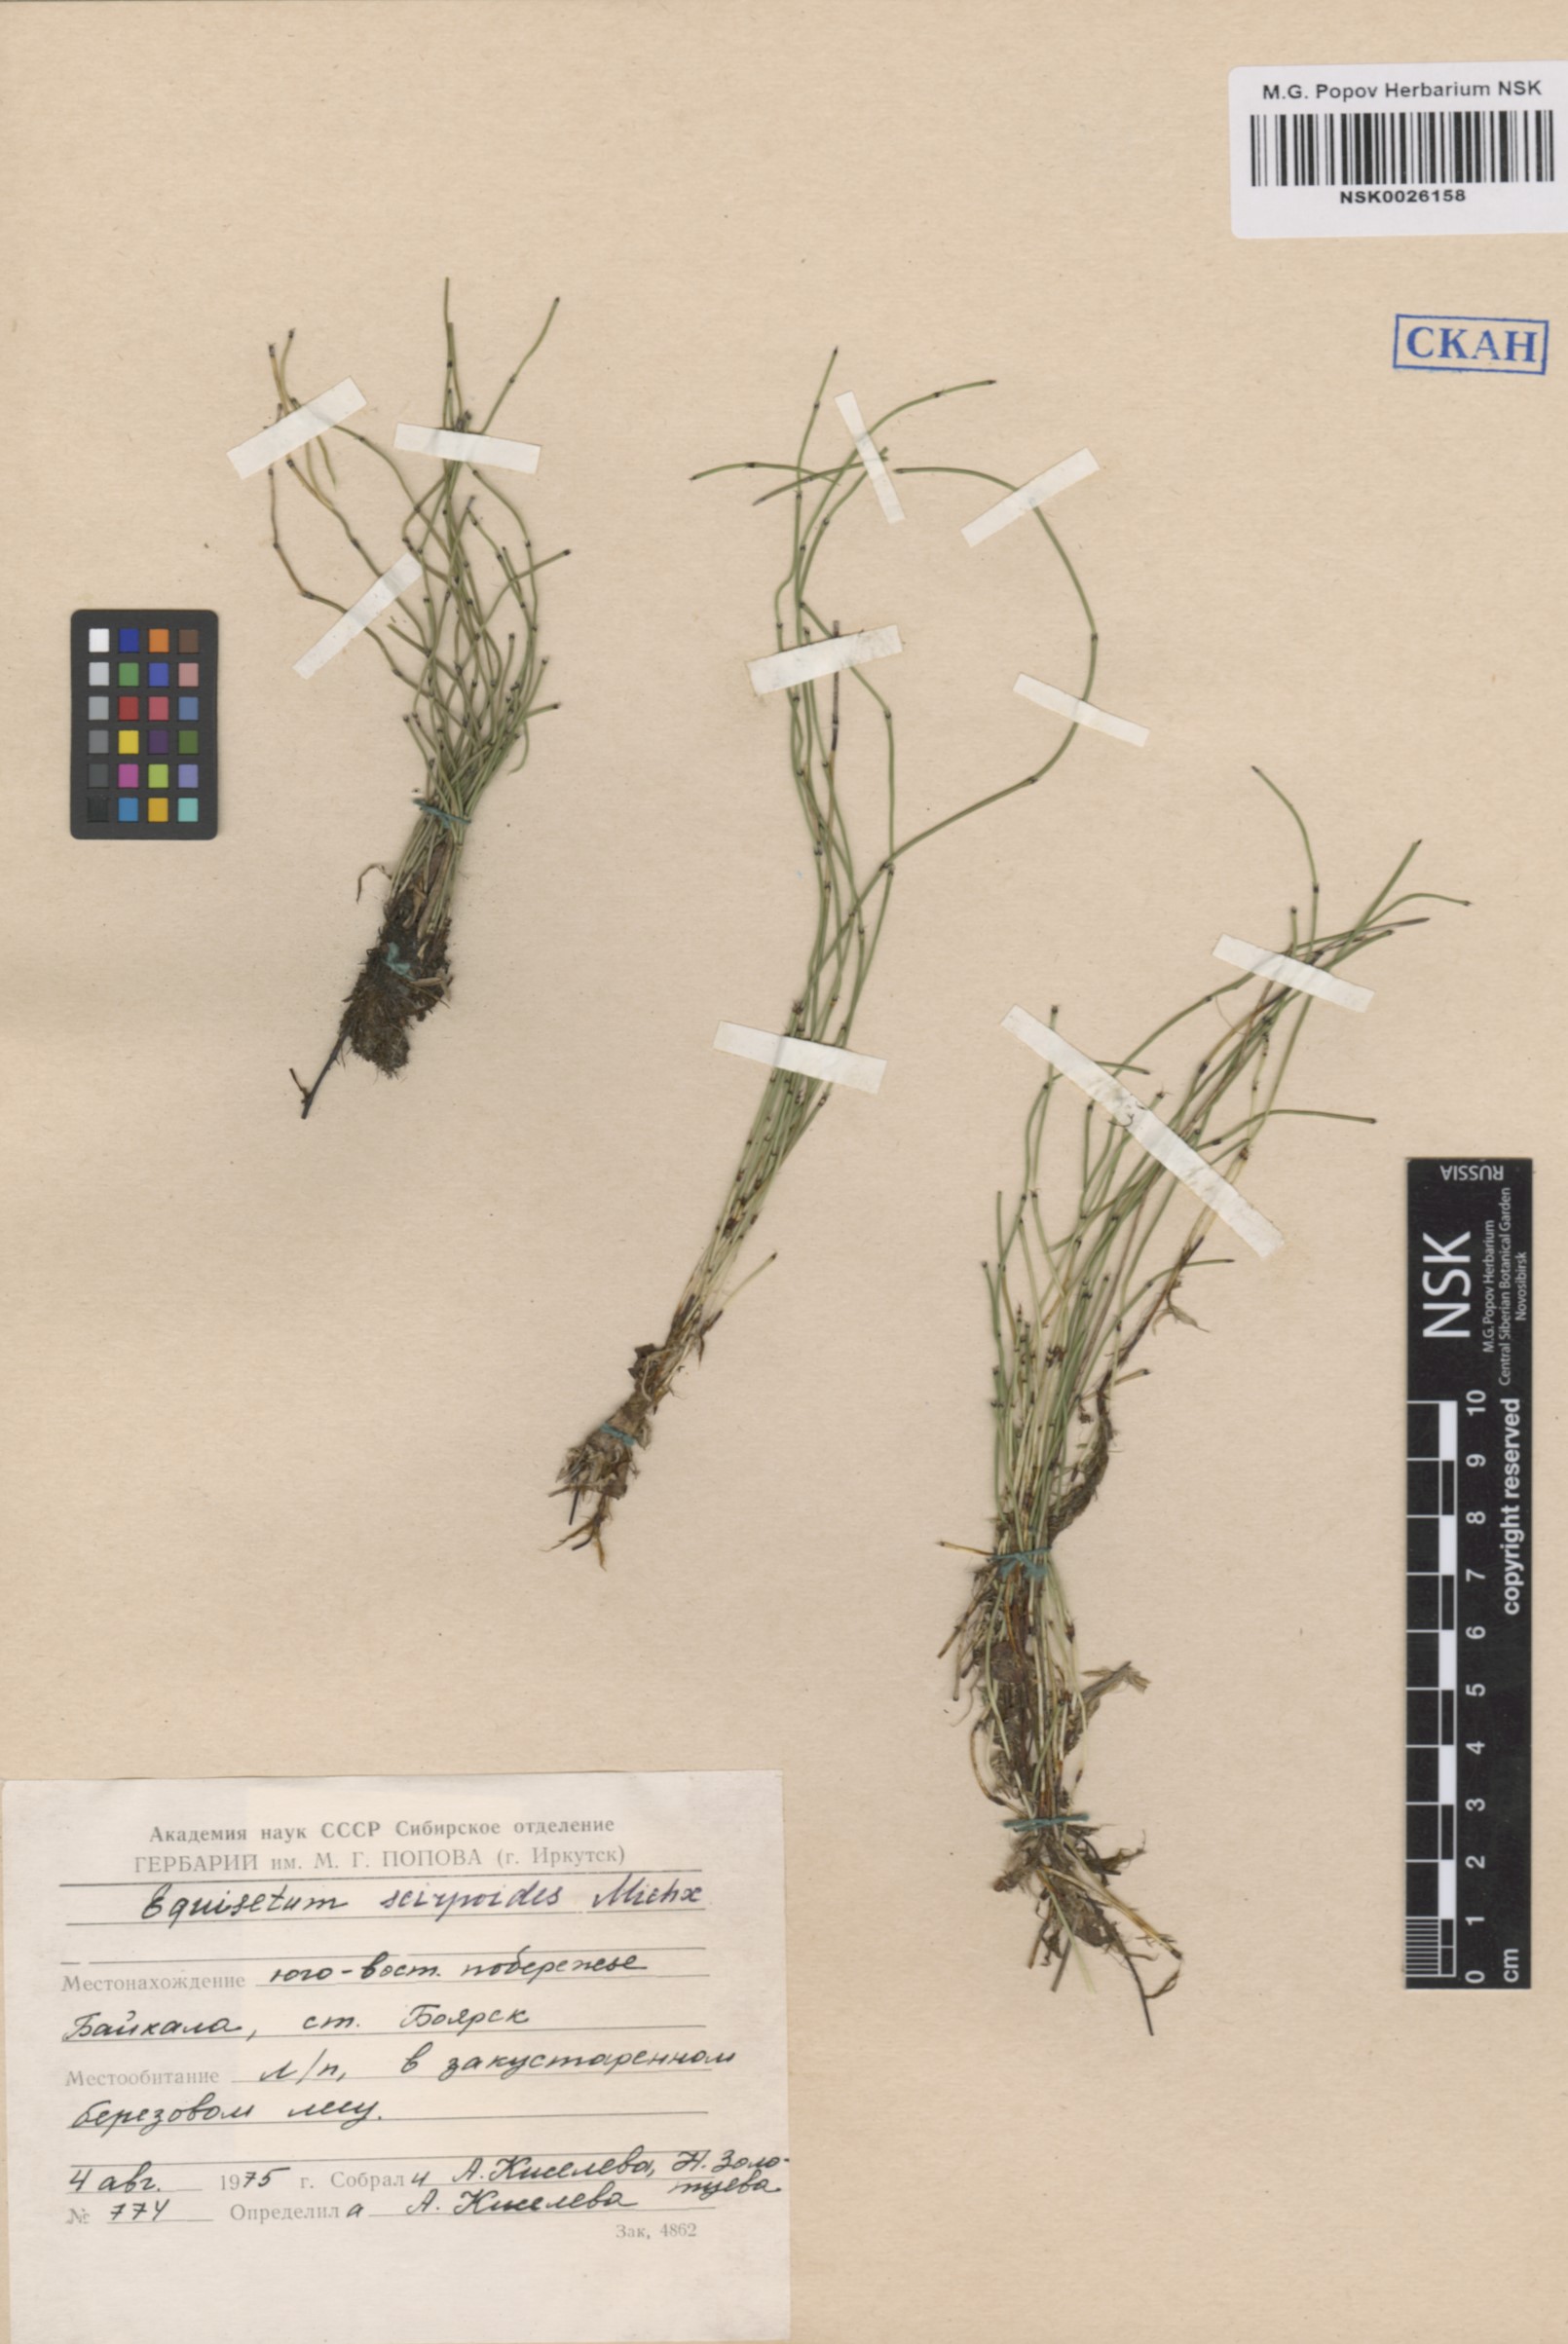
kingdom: Plantae
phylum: Tracheophyta
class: Polypodiopsida
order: Equisetales
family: Equisetaceae
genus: Equisetum
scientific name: Equisetum scirpoides
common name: Delicate horsetail
